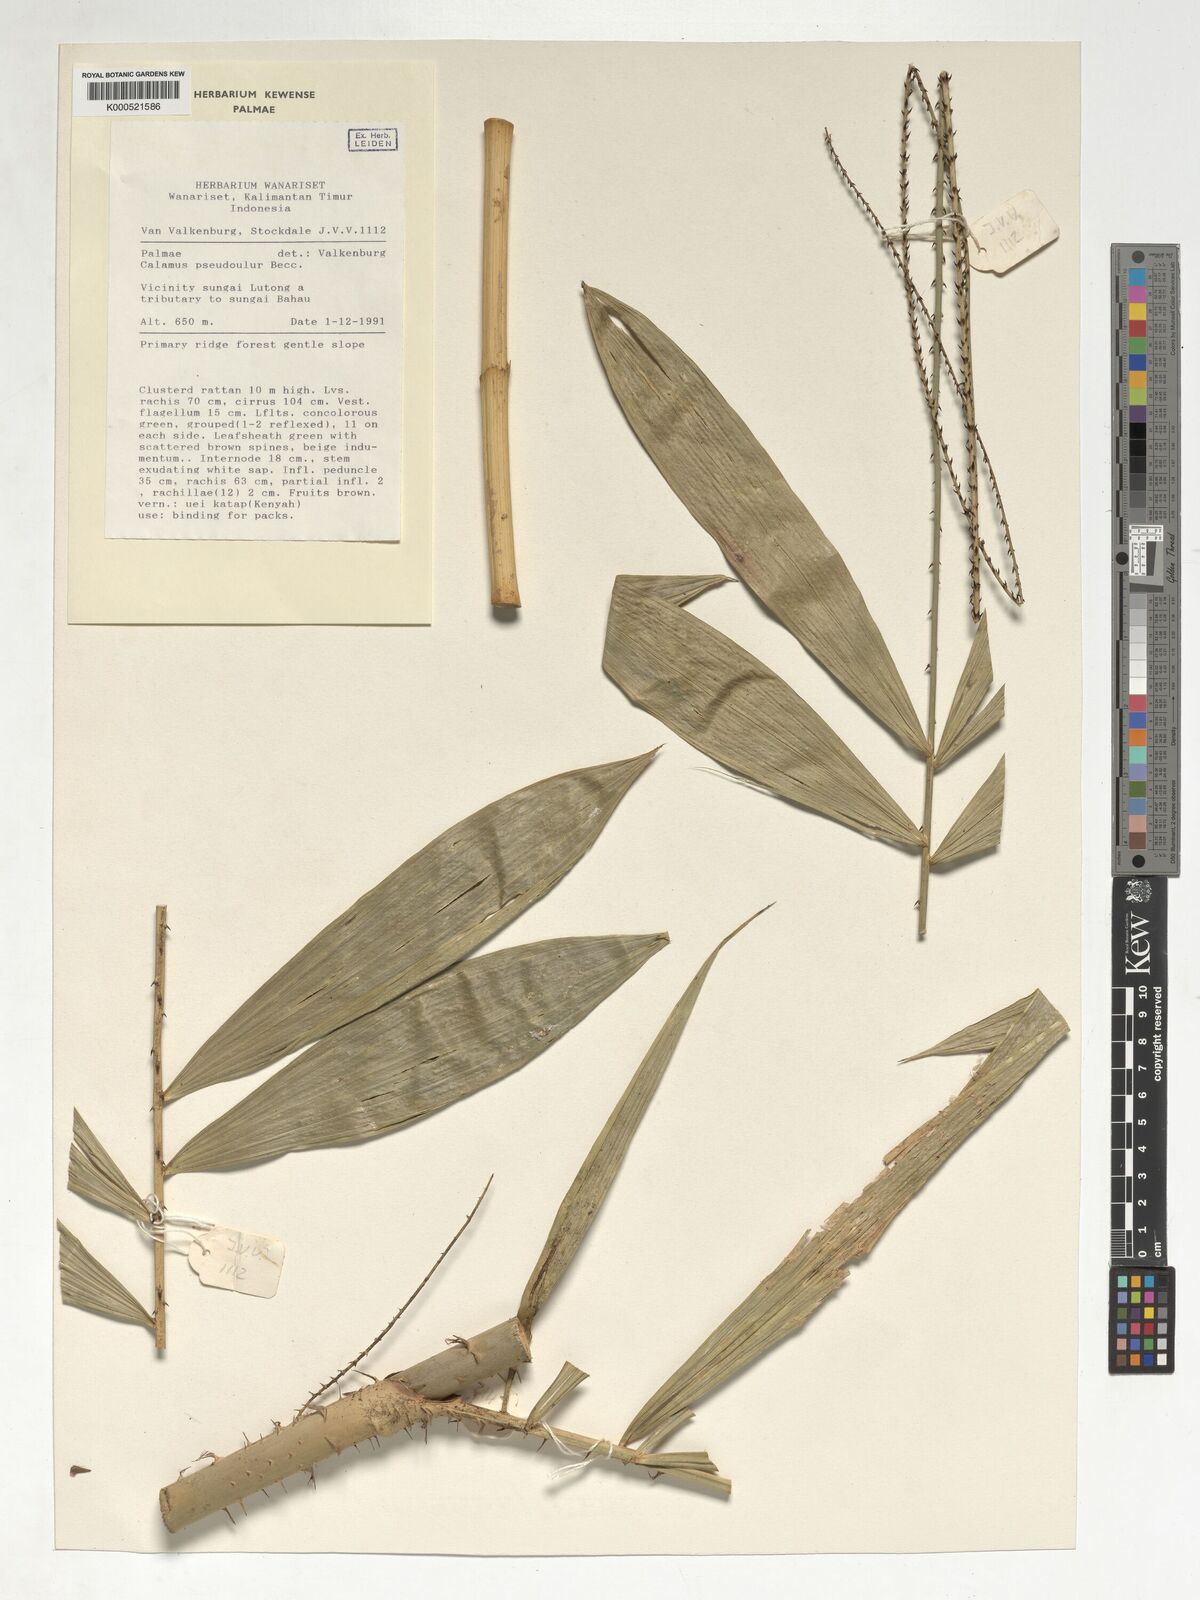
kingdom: Plantae
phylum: Tracheophyta
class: Liliopsida
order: Arecales
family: Arecaceae
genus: Calamus
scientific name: Calamus erioacanthus
